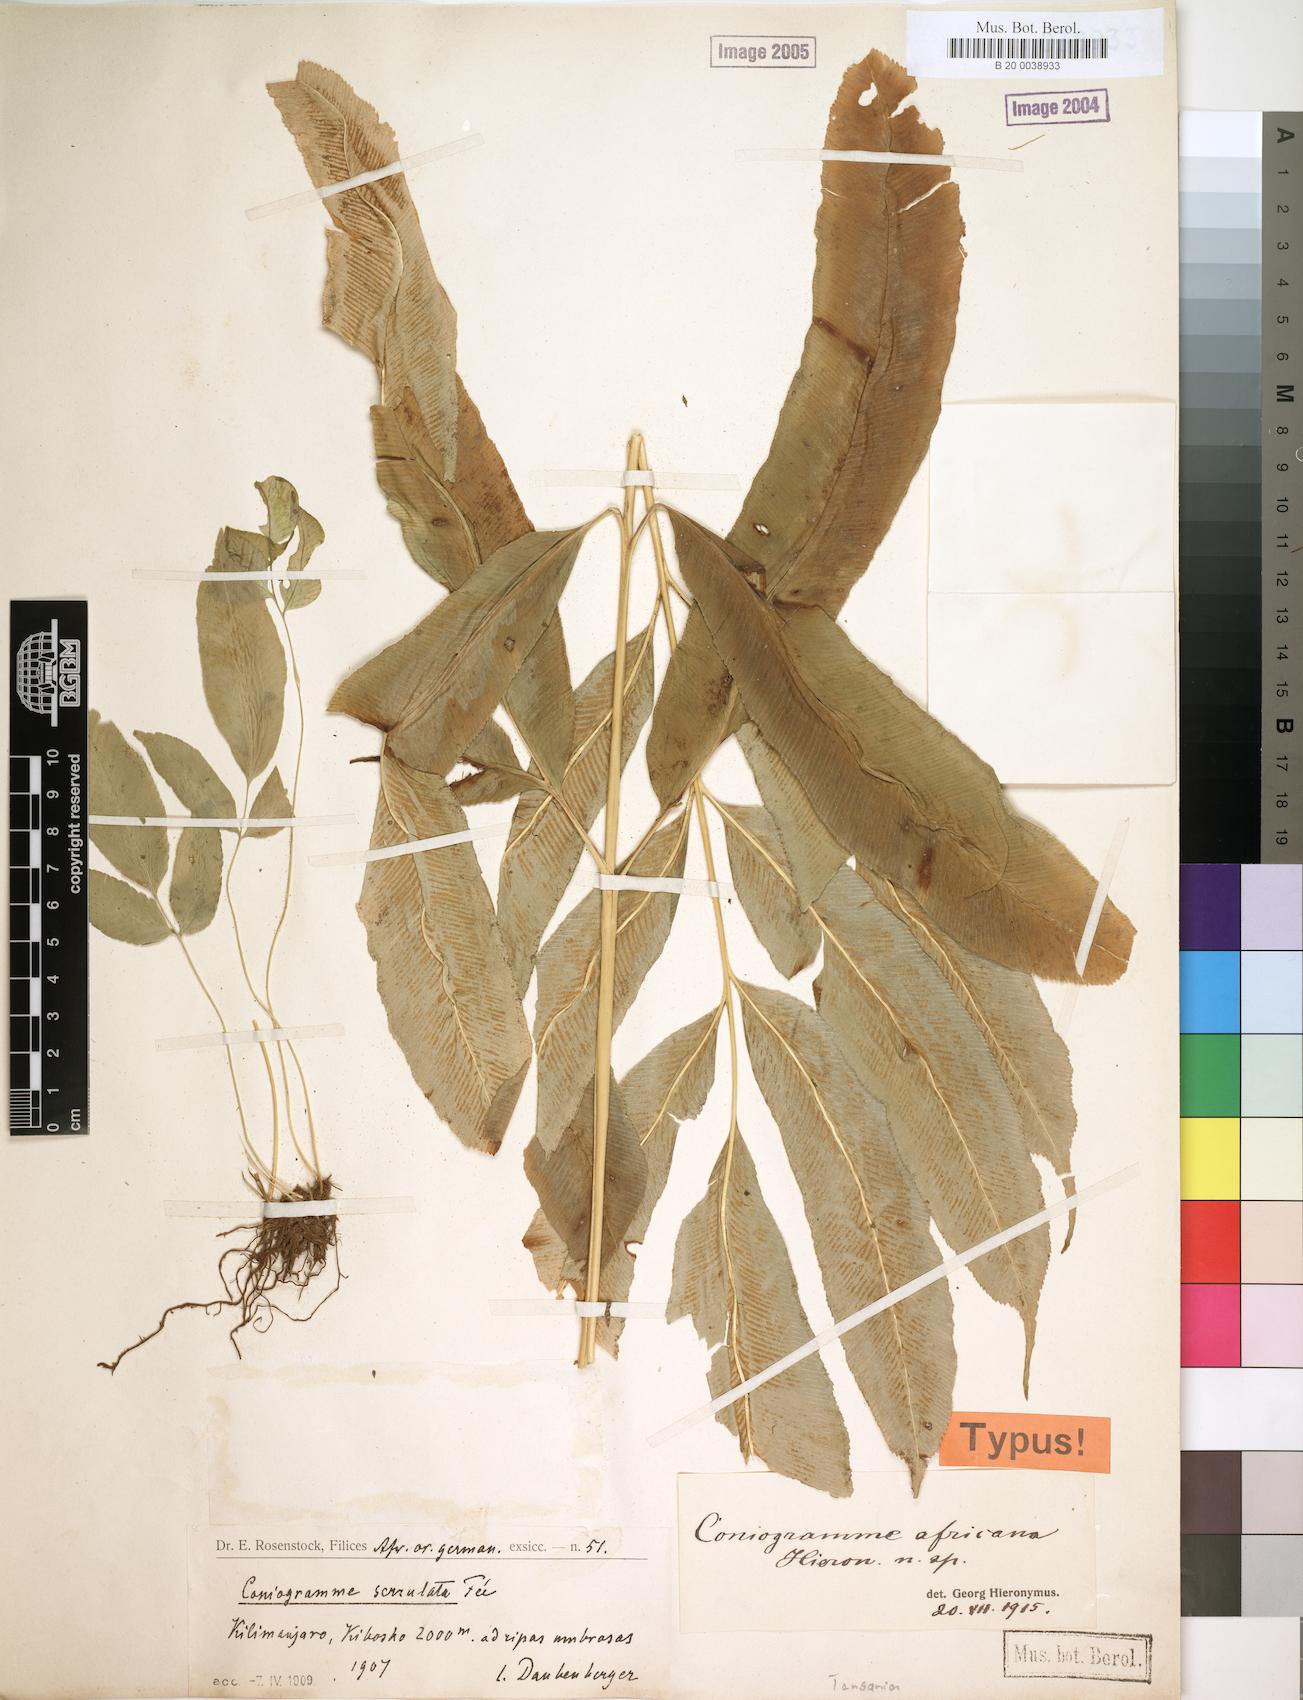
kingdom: Plantae
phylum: Tracheophyta
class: Polypodiopsida
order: Polypodiales
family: Pteridaceae
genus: Coniogramme
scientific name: Coniogramme africana
